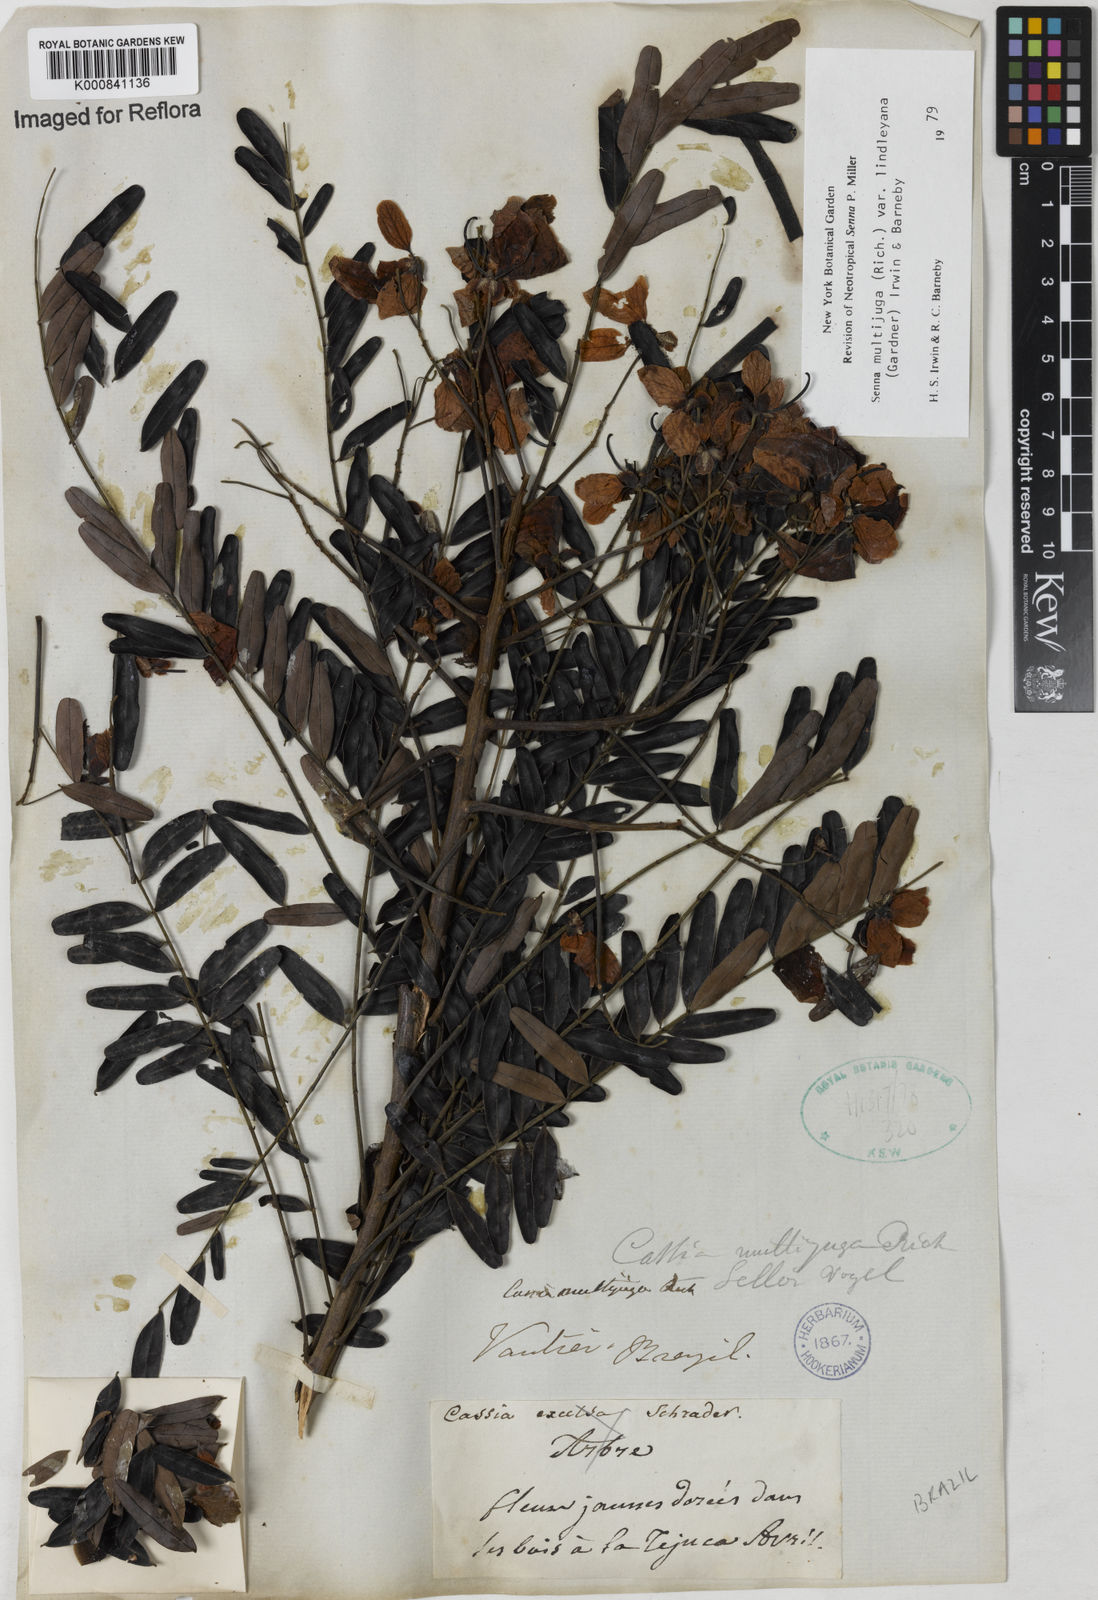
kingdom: Plantae
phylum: Tracheophyta
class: Magnoliopsida
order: Fabales
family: Fabaceae
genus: Senna
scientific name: Senna multijuga
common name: False sicklepod
